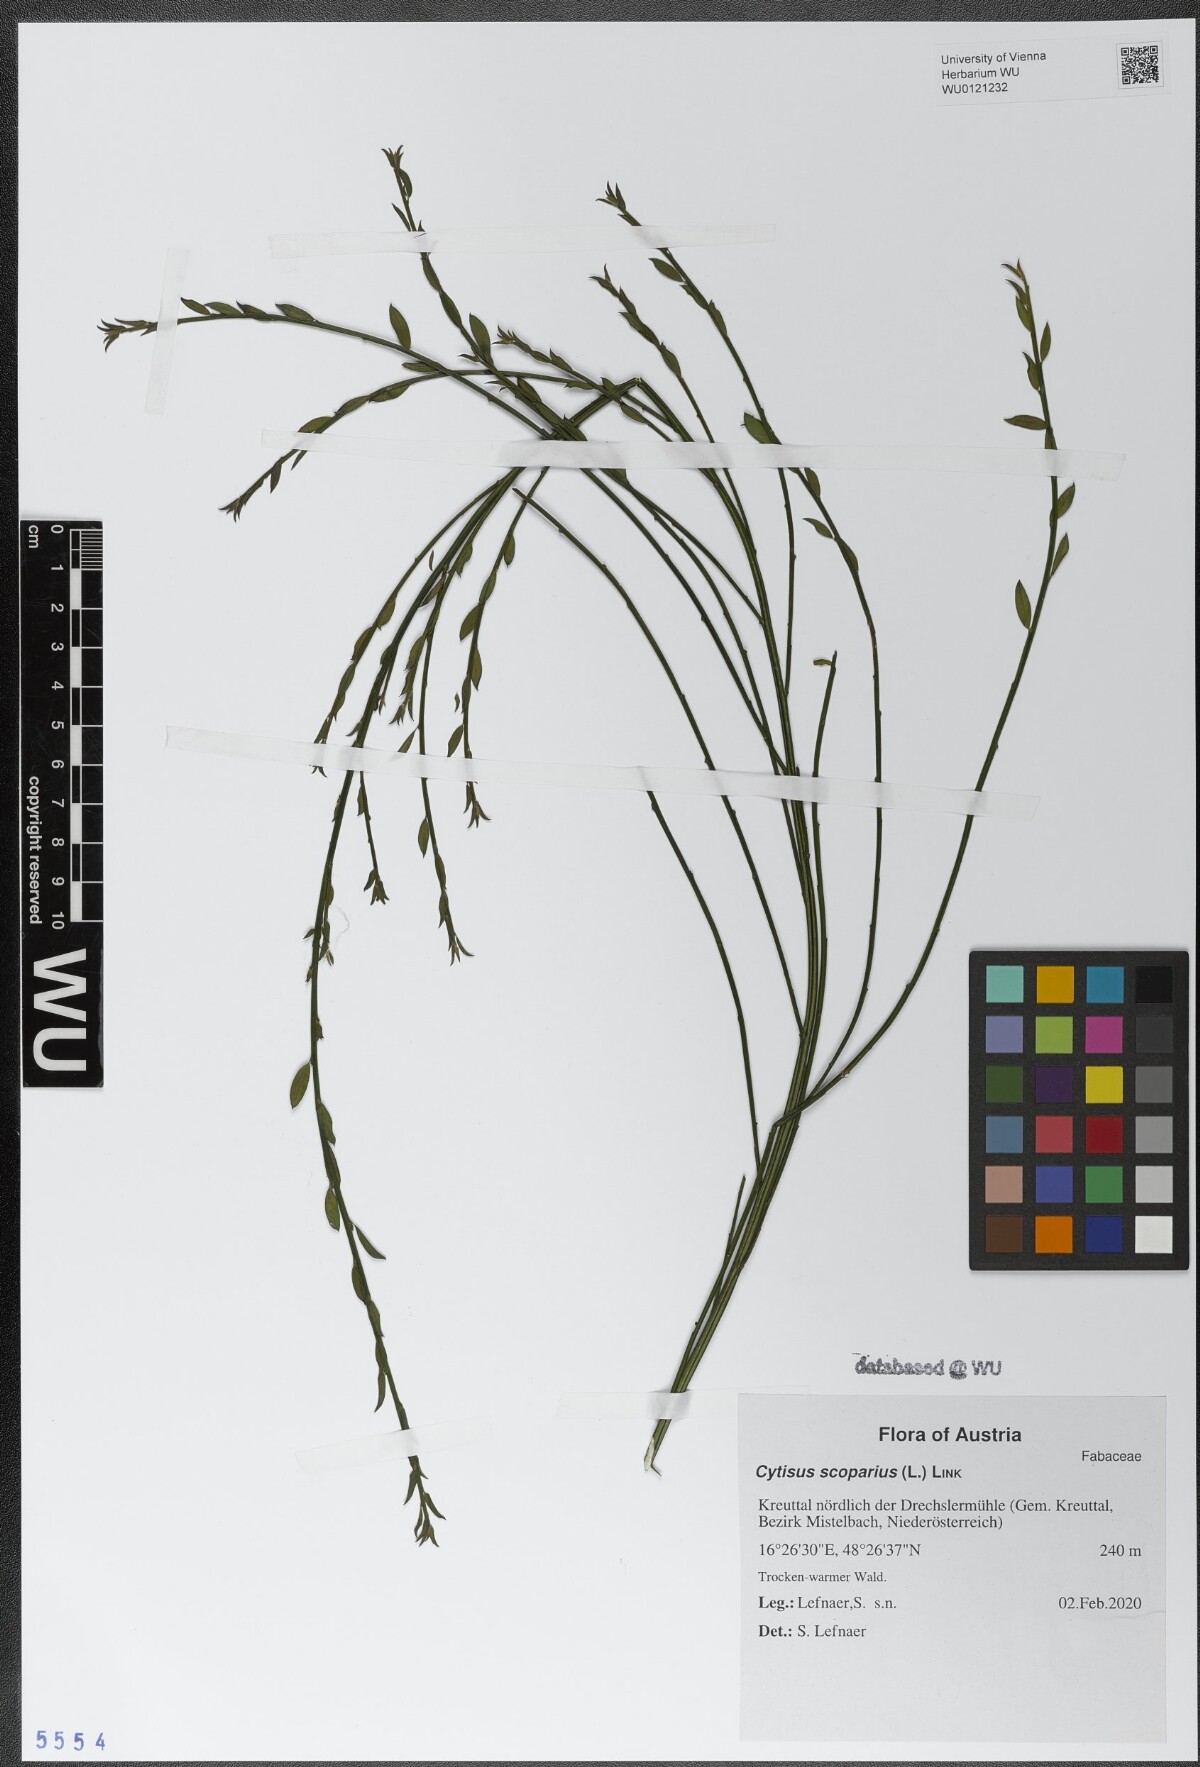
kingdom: Plantae
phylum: Tracheophyta
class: Magnoliopsida
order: Fabales
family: Fabaceae
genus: Cytisus
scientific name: Cytisus scoparius
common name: Scotch broom
